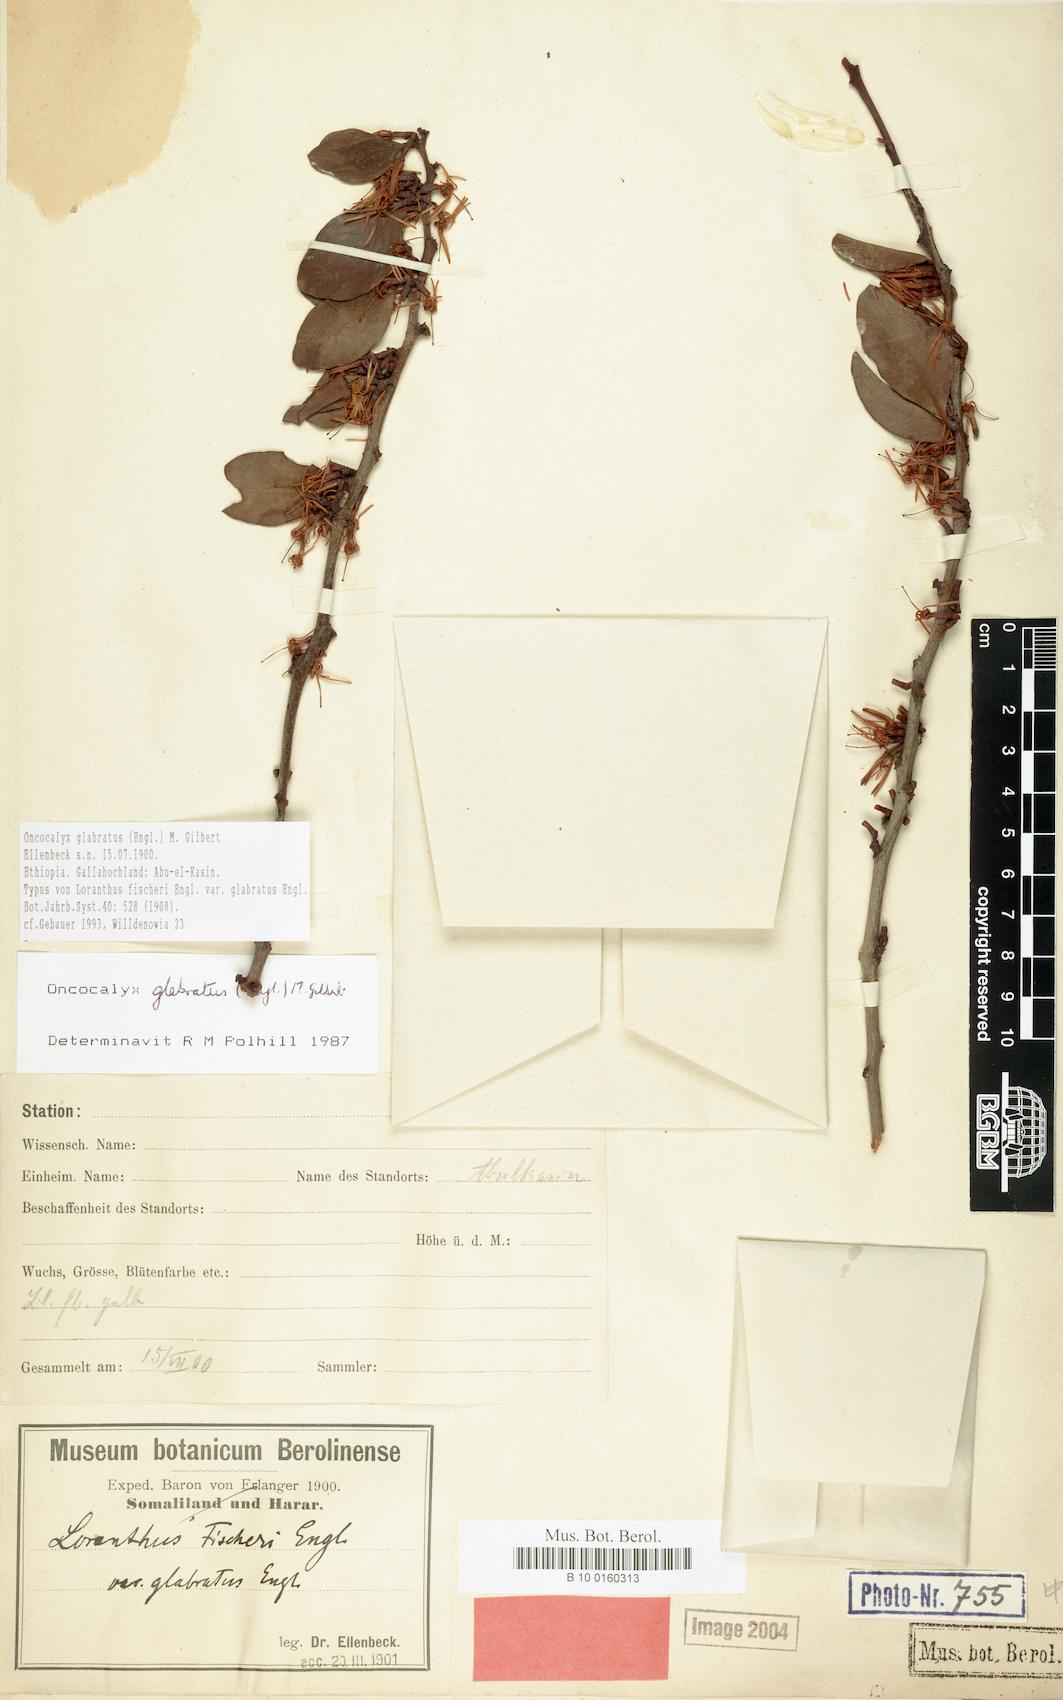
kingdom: Plantae
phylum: Tracheophyta
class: Magnoliopsida
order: Santalales
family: Loranthaceae
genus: Oncocalyx
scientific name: Oncocalyx glabratus
